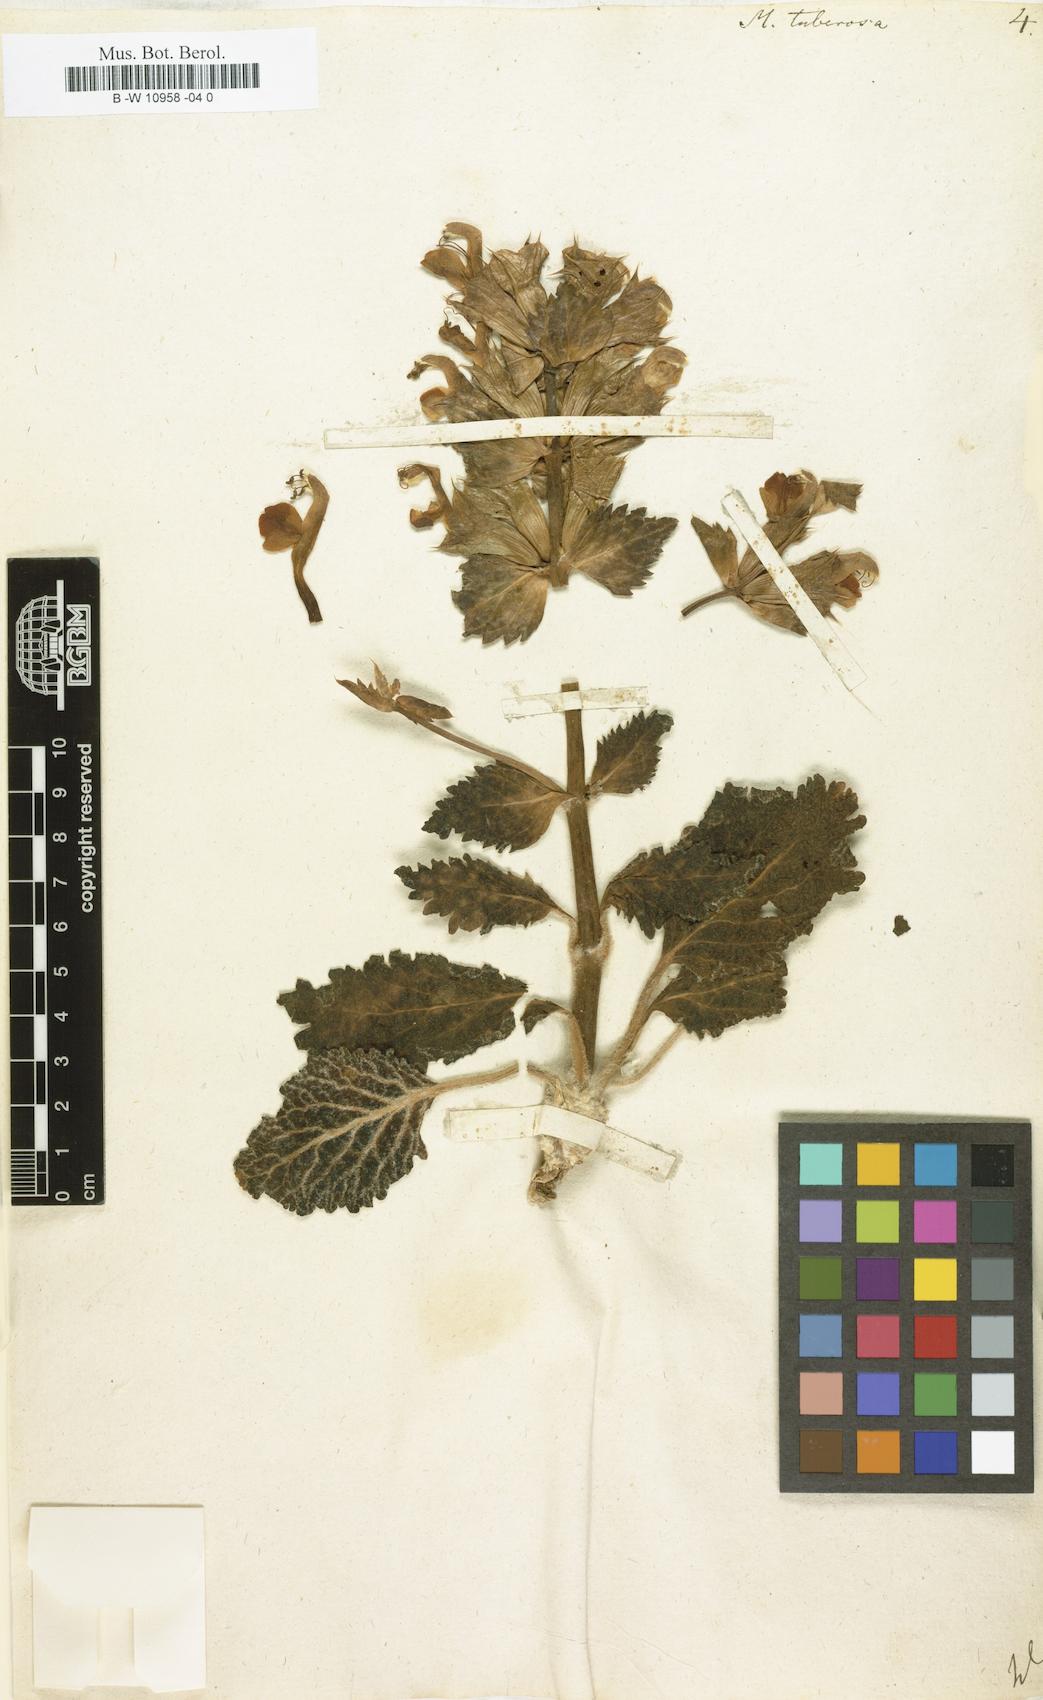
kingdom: Plantae
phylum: Tracheophyta
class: Magnoliopsida
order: Lamiales
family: Lamiaceae
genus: Moluccella
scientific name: Moluccella tuberosa
